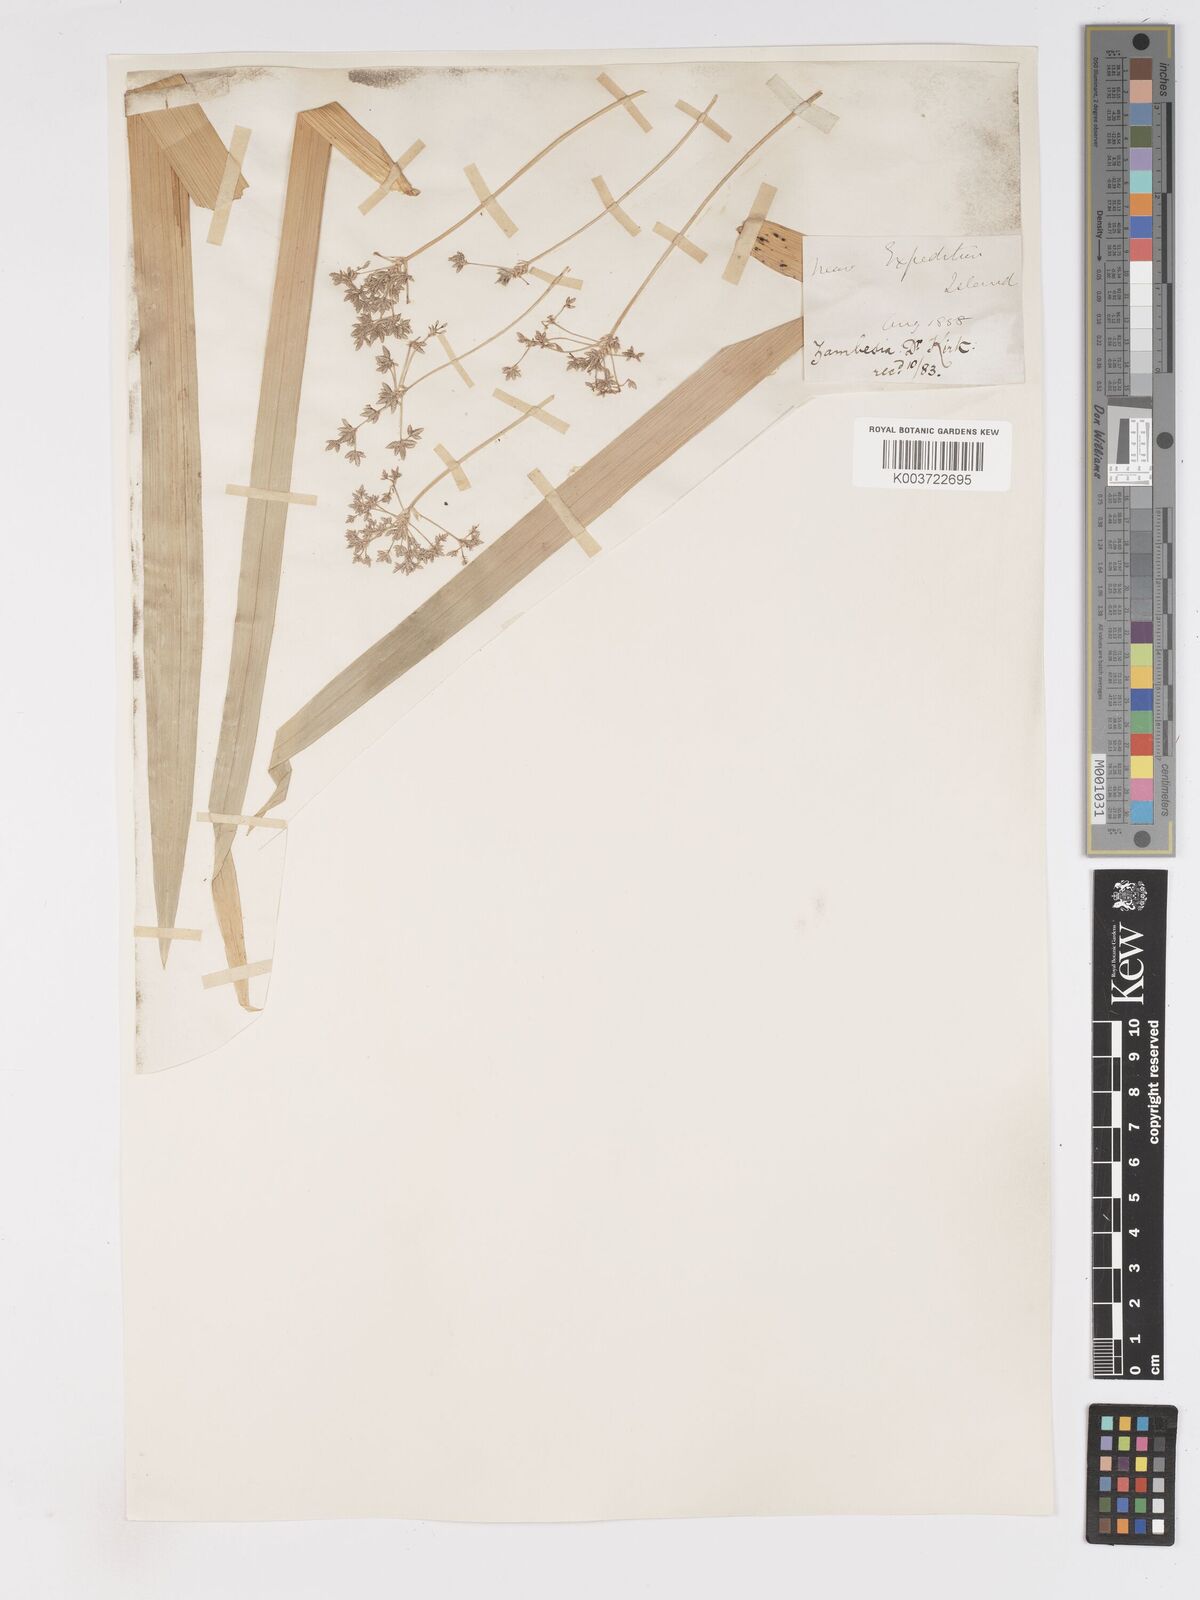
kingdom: Plantae
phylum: Tracheophyta
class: Liliopsida
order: Poales
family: Cyperaceae
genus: Cyperus
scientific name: Cyperus alternifolius
